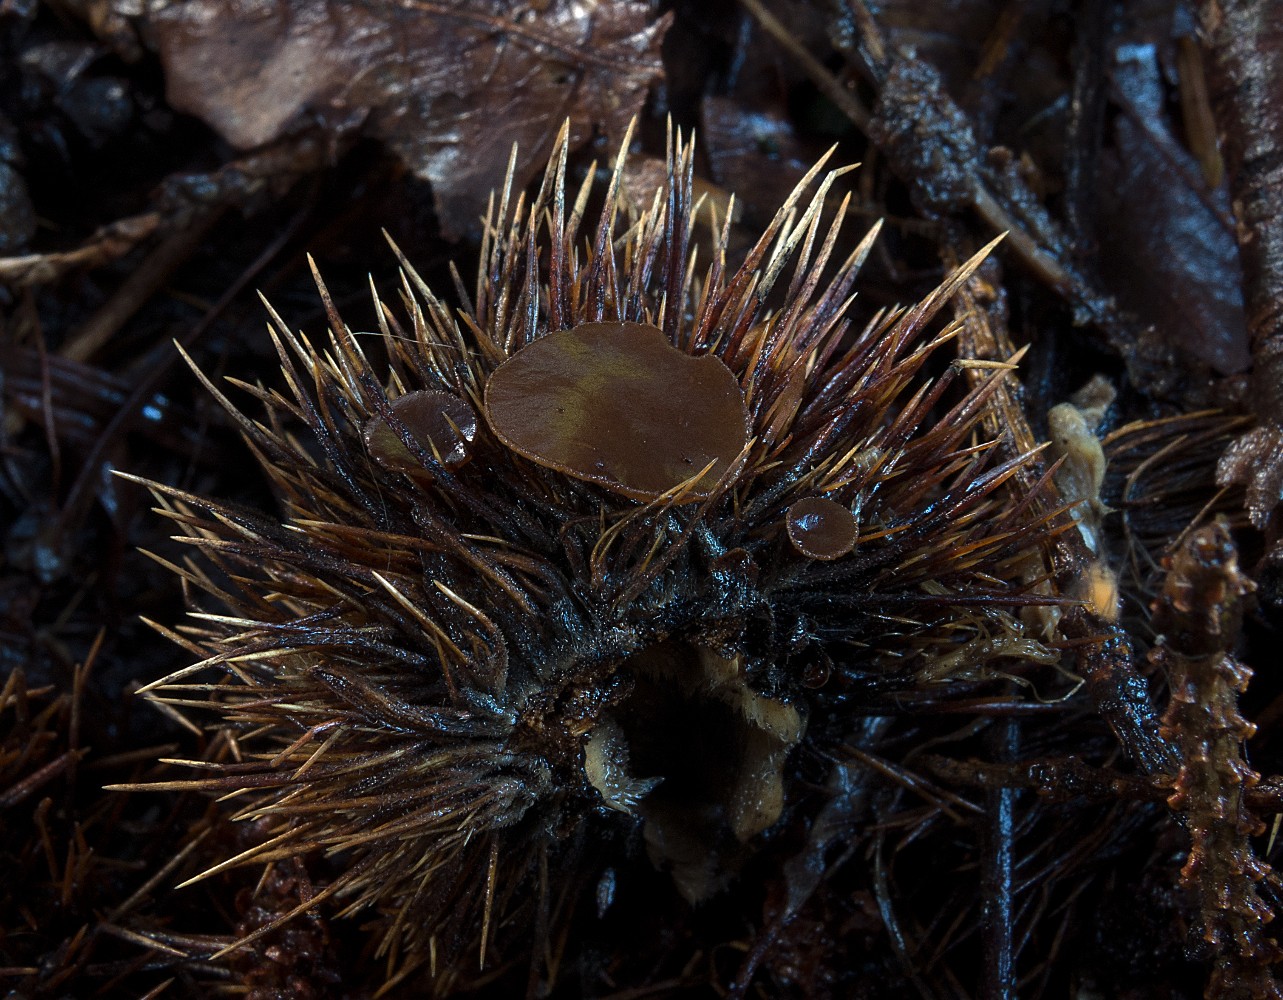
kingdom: Fungi
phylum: Ascomycota
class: Leotiomycetes
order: Helotiales
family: Rutstroemiaceae
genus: Lanzia
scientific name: Lanzia echinophila
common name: kastanie-brunskive
